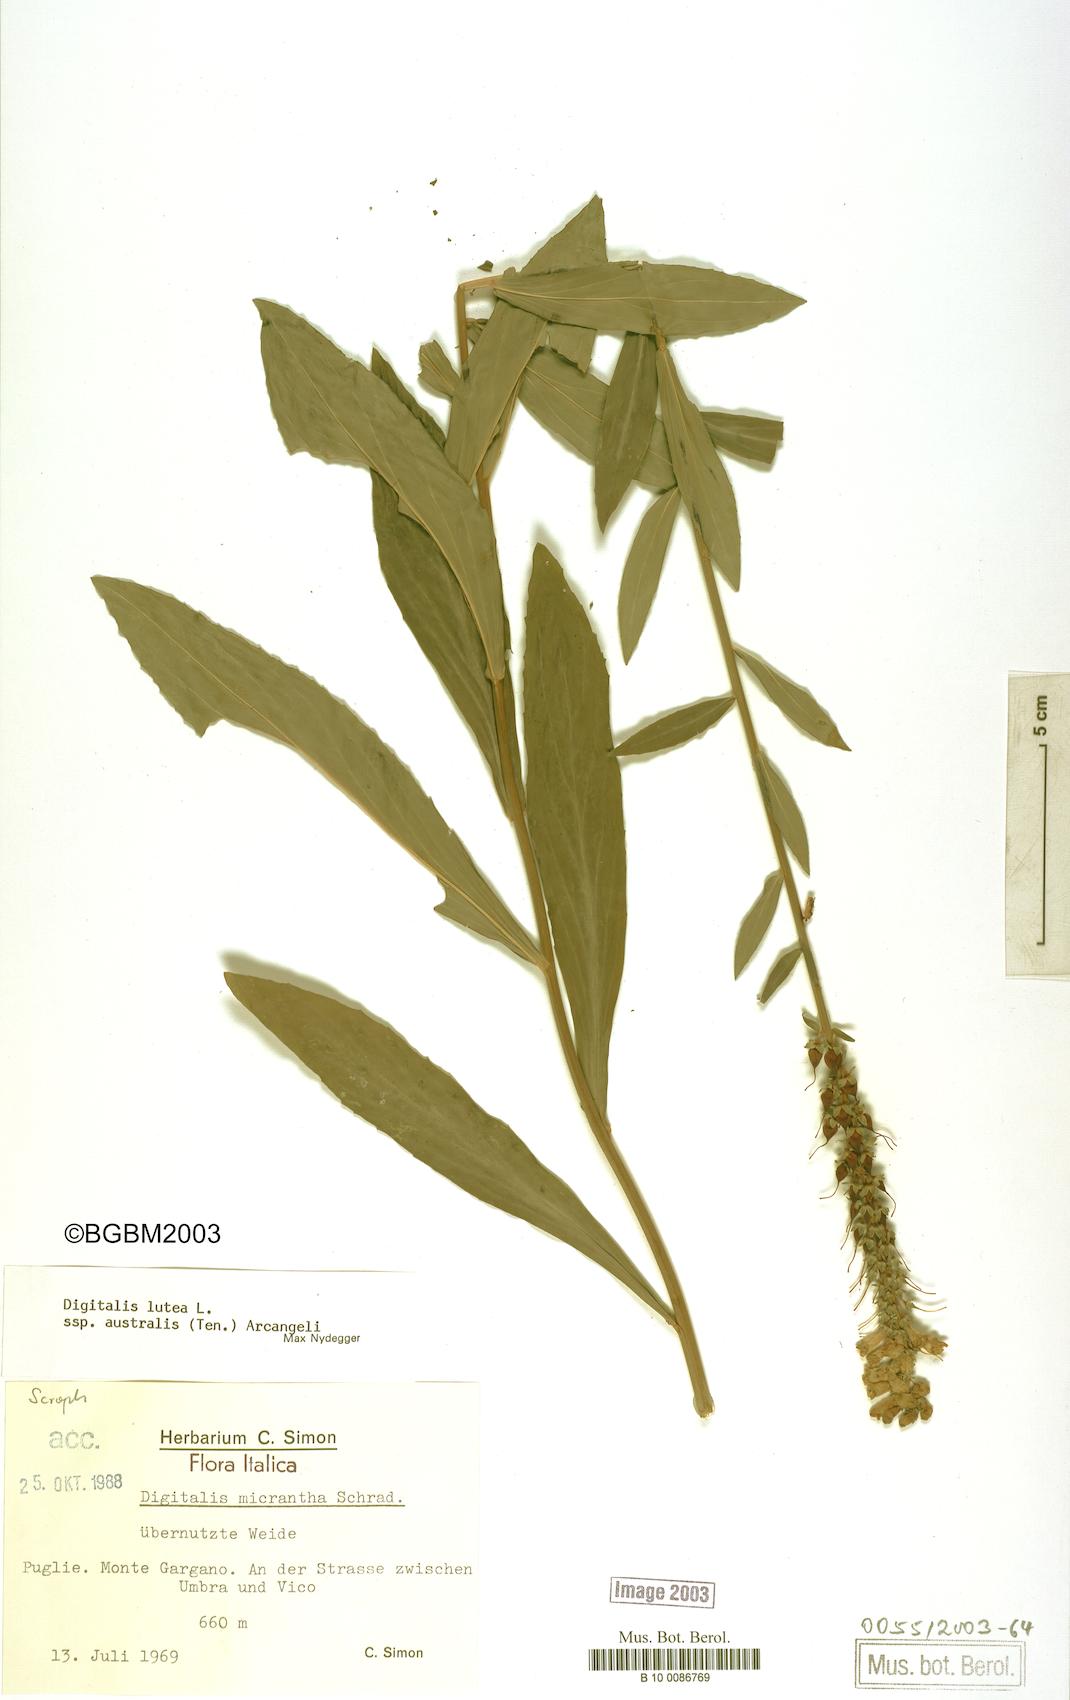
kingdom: Plantae
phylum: Tracheophyta
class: Magnoliopsida
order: Lamiales
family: Plantaginaceae
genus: Digitalis
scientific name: Digitalis lutea
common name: Straw foxglove
